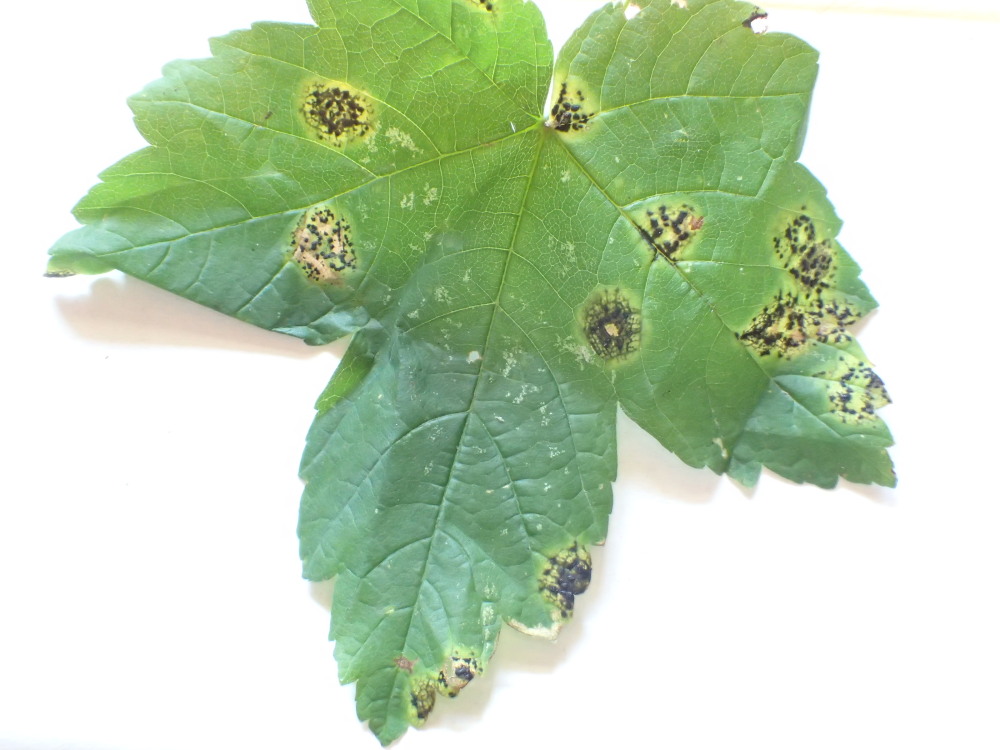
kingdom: Fungi
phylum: Ascomycota
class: Leotiomycetes
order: Rhytismatales
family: Rhytismataceae
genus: Rhytisma
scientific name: Rhytisma acerinum
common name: ahorn-rynkeplet
